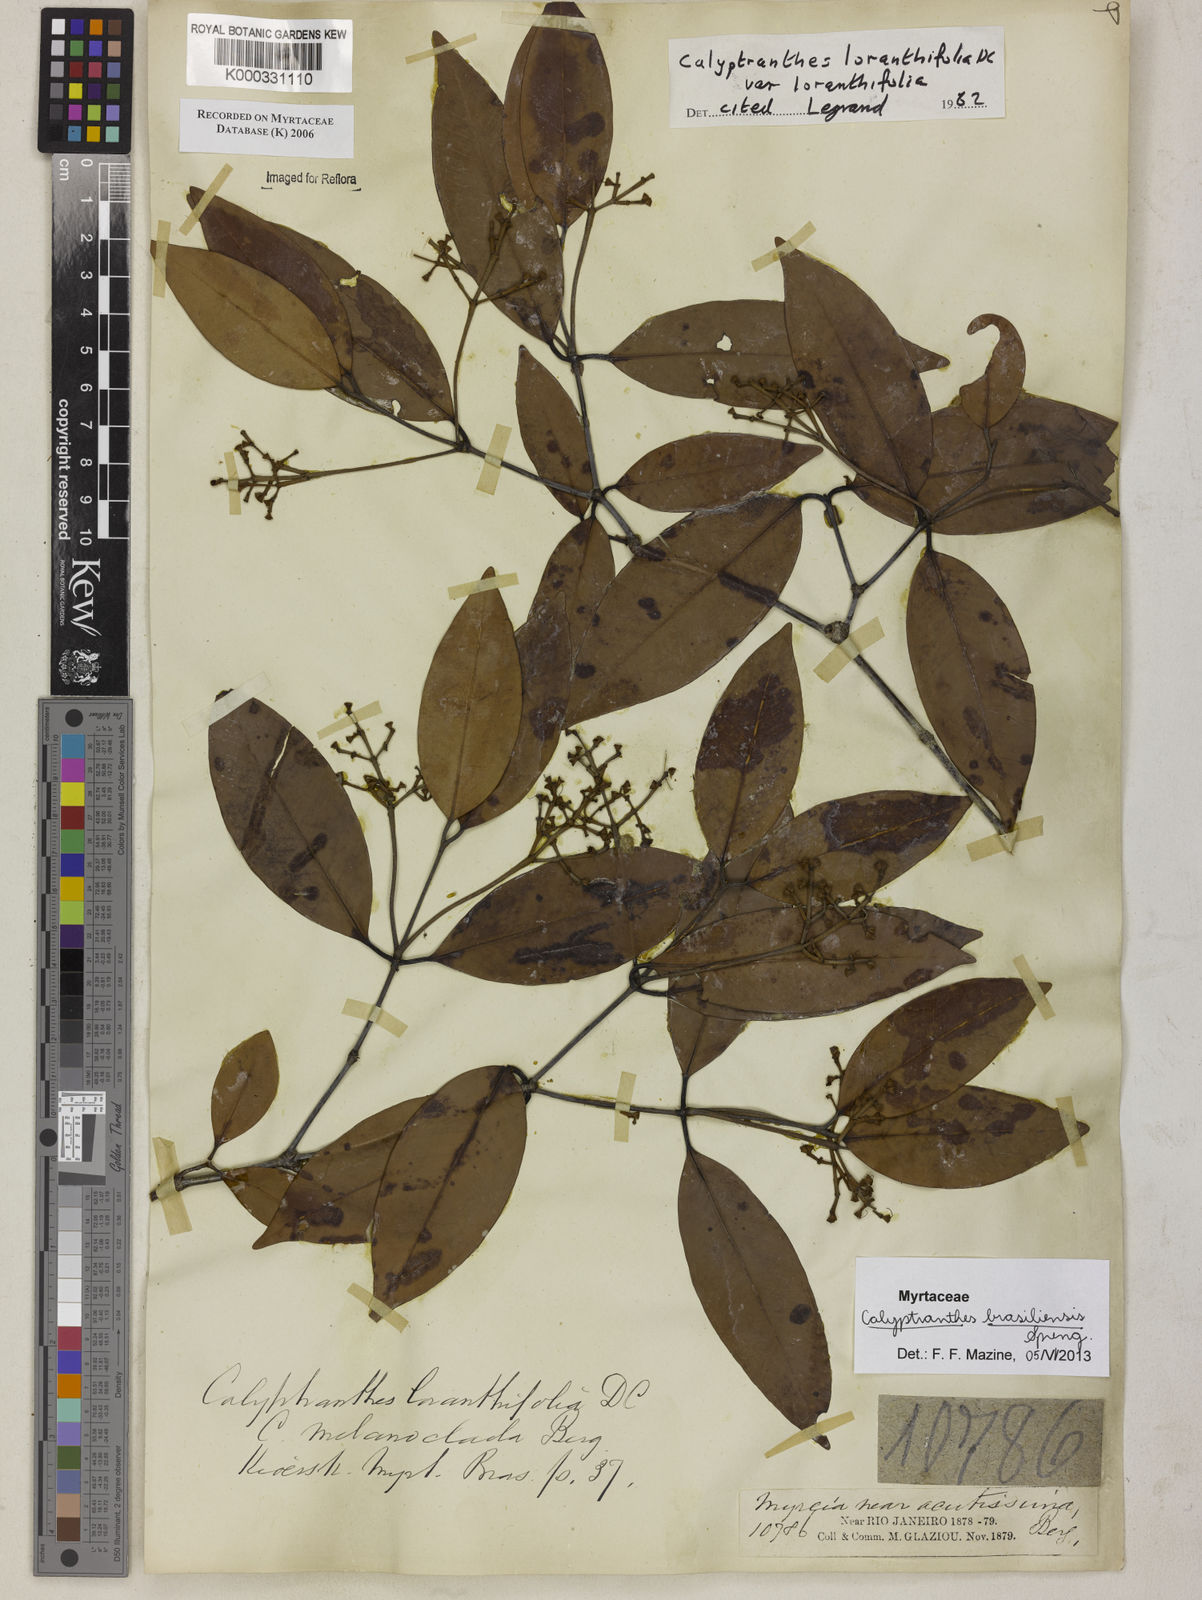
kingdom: Plantae
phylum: Tracheophyta
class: Magnoliopsida
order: Myrtales
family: Myrtaceae
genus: Myrcia
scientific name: Myrcia loranthifolia
